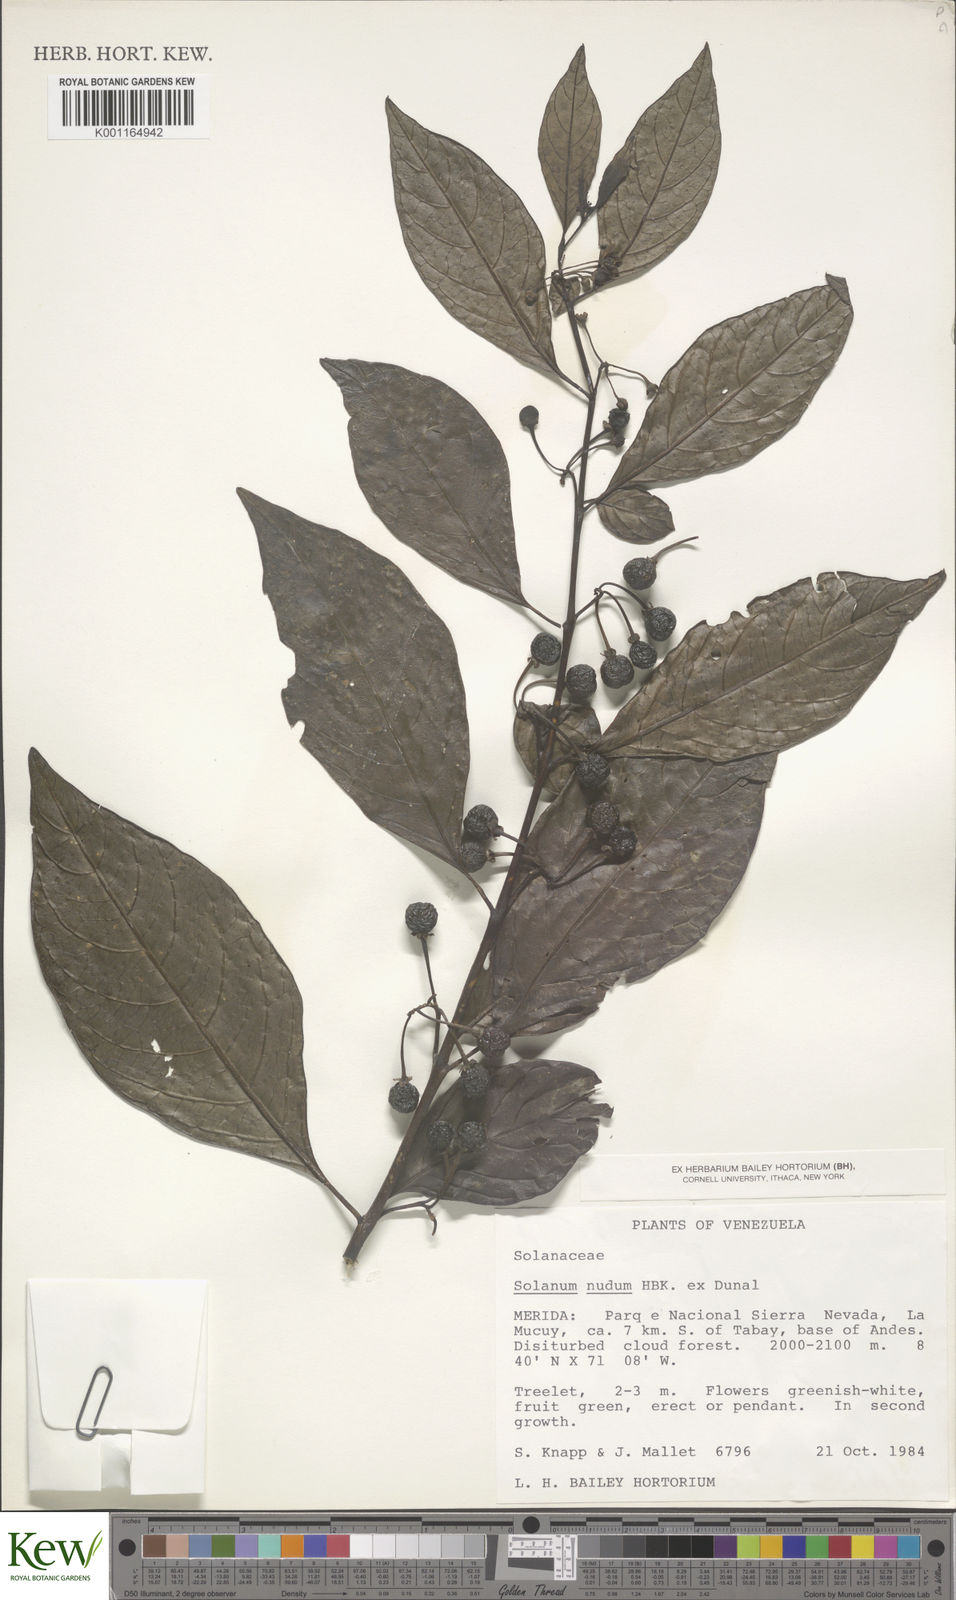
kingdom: Plantae
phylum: Tracheophyta
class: Magnoliopsida
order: Solanales
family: Solanaceae
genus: Solanum
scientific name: Solanum nudum
